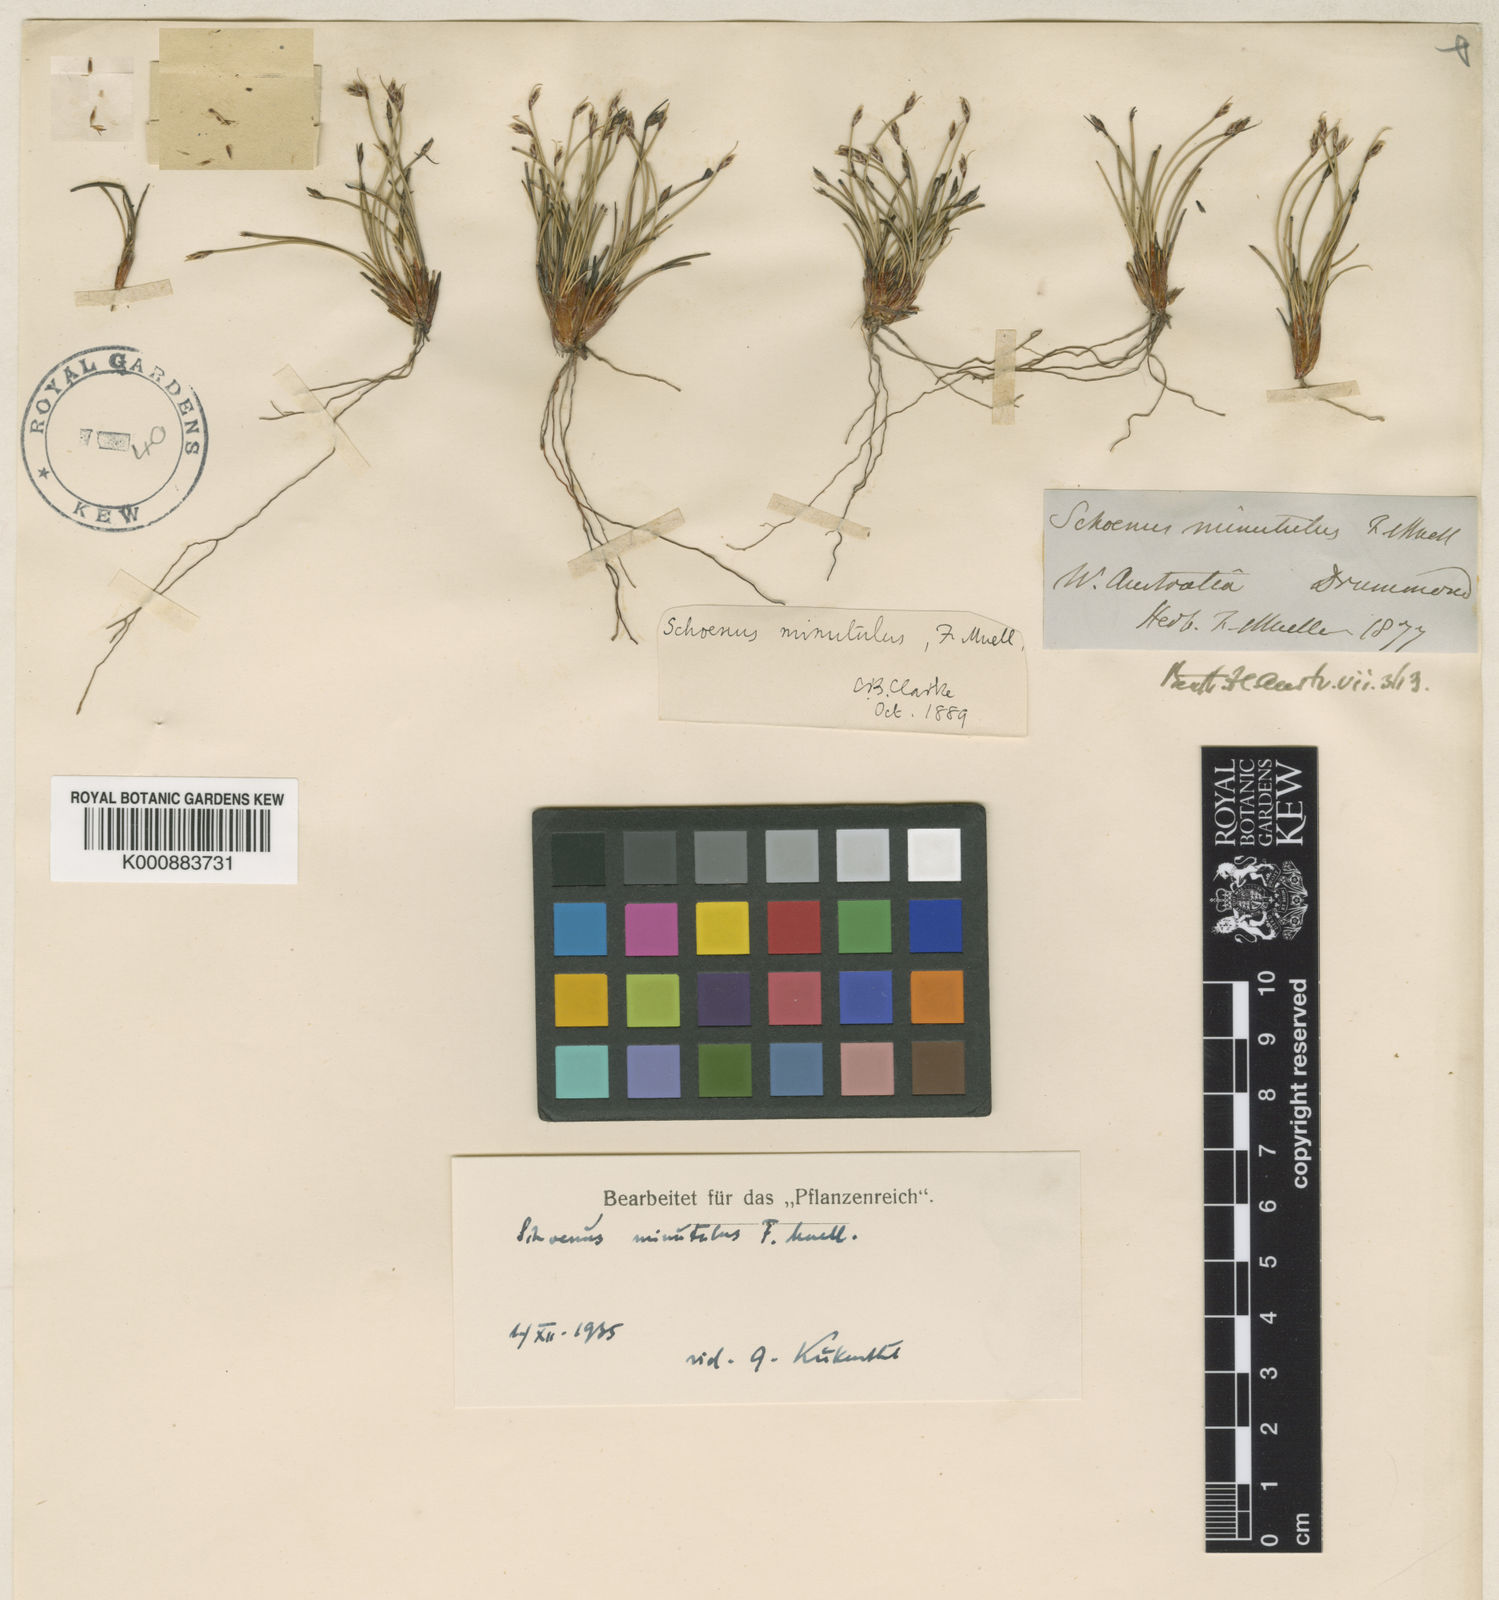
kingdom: Plantae
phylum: Tracheophyta
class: Liliopsida
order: Poales
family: Cyperaceae
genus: Schoenus
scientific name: Schoenus minutulus
